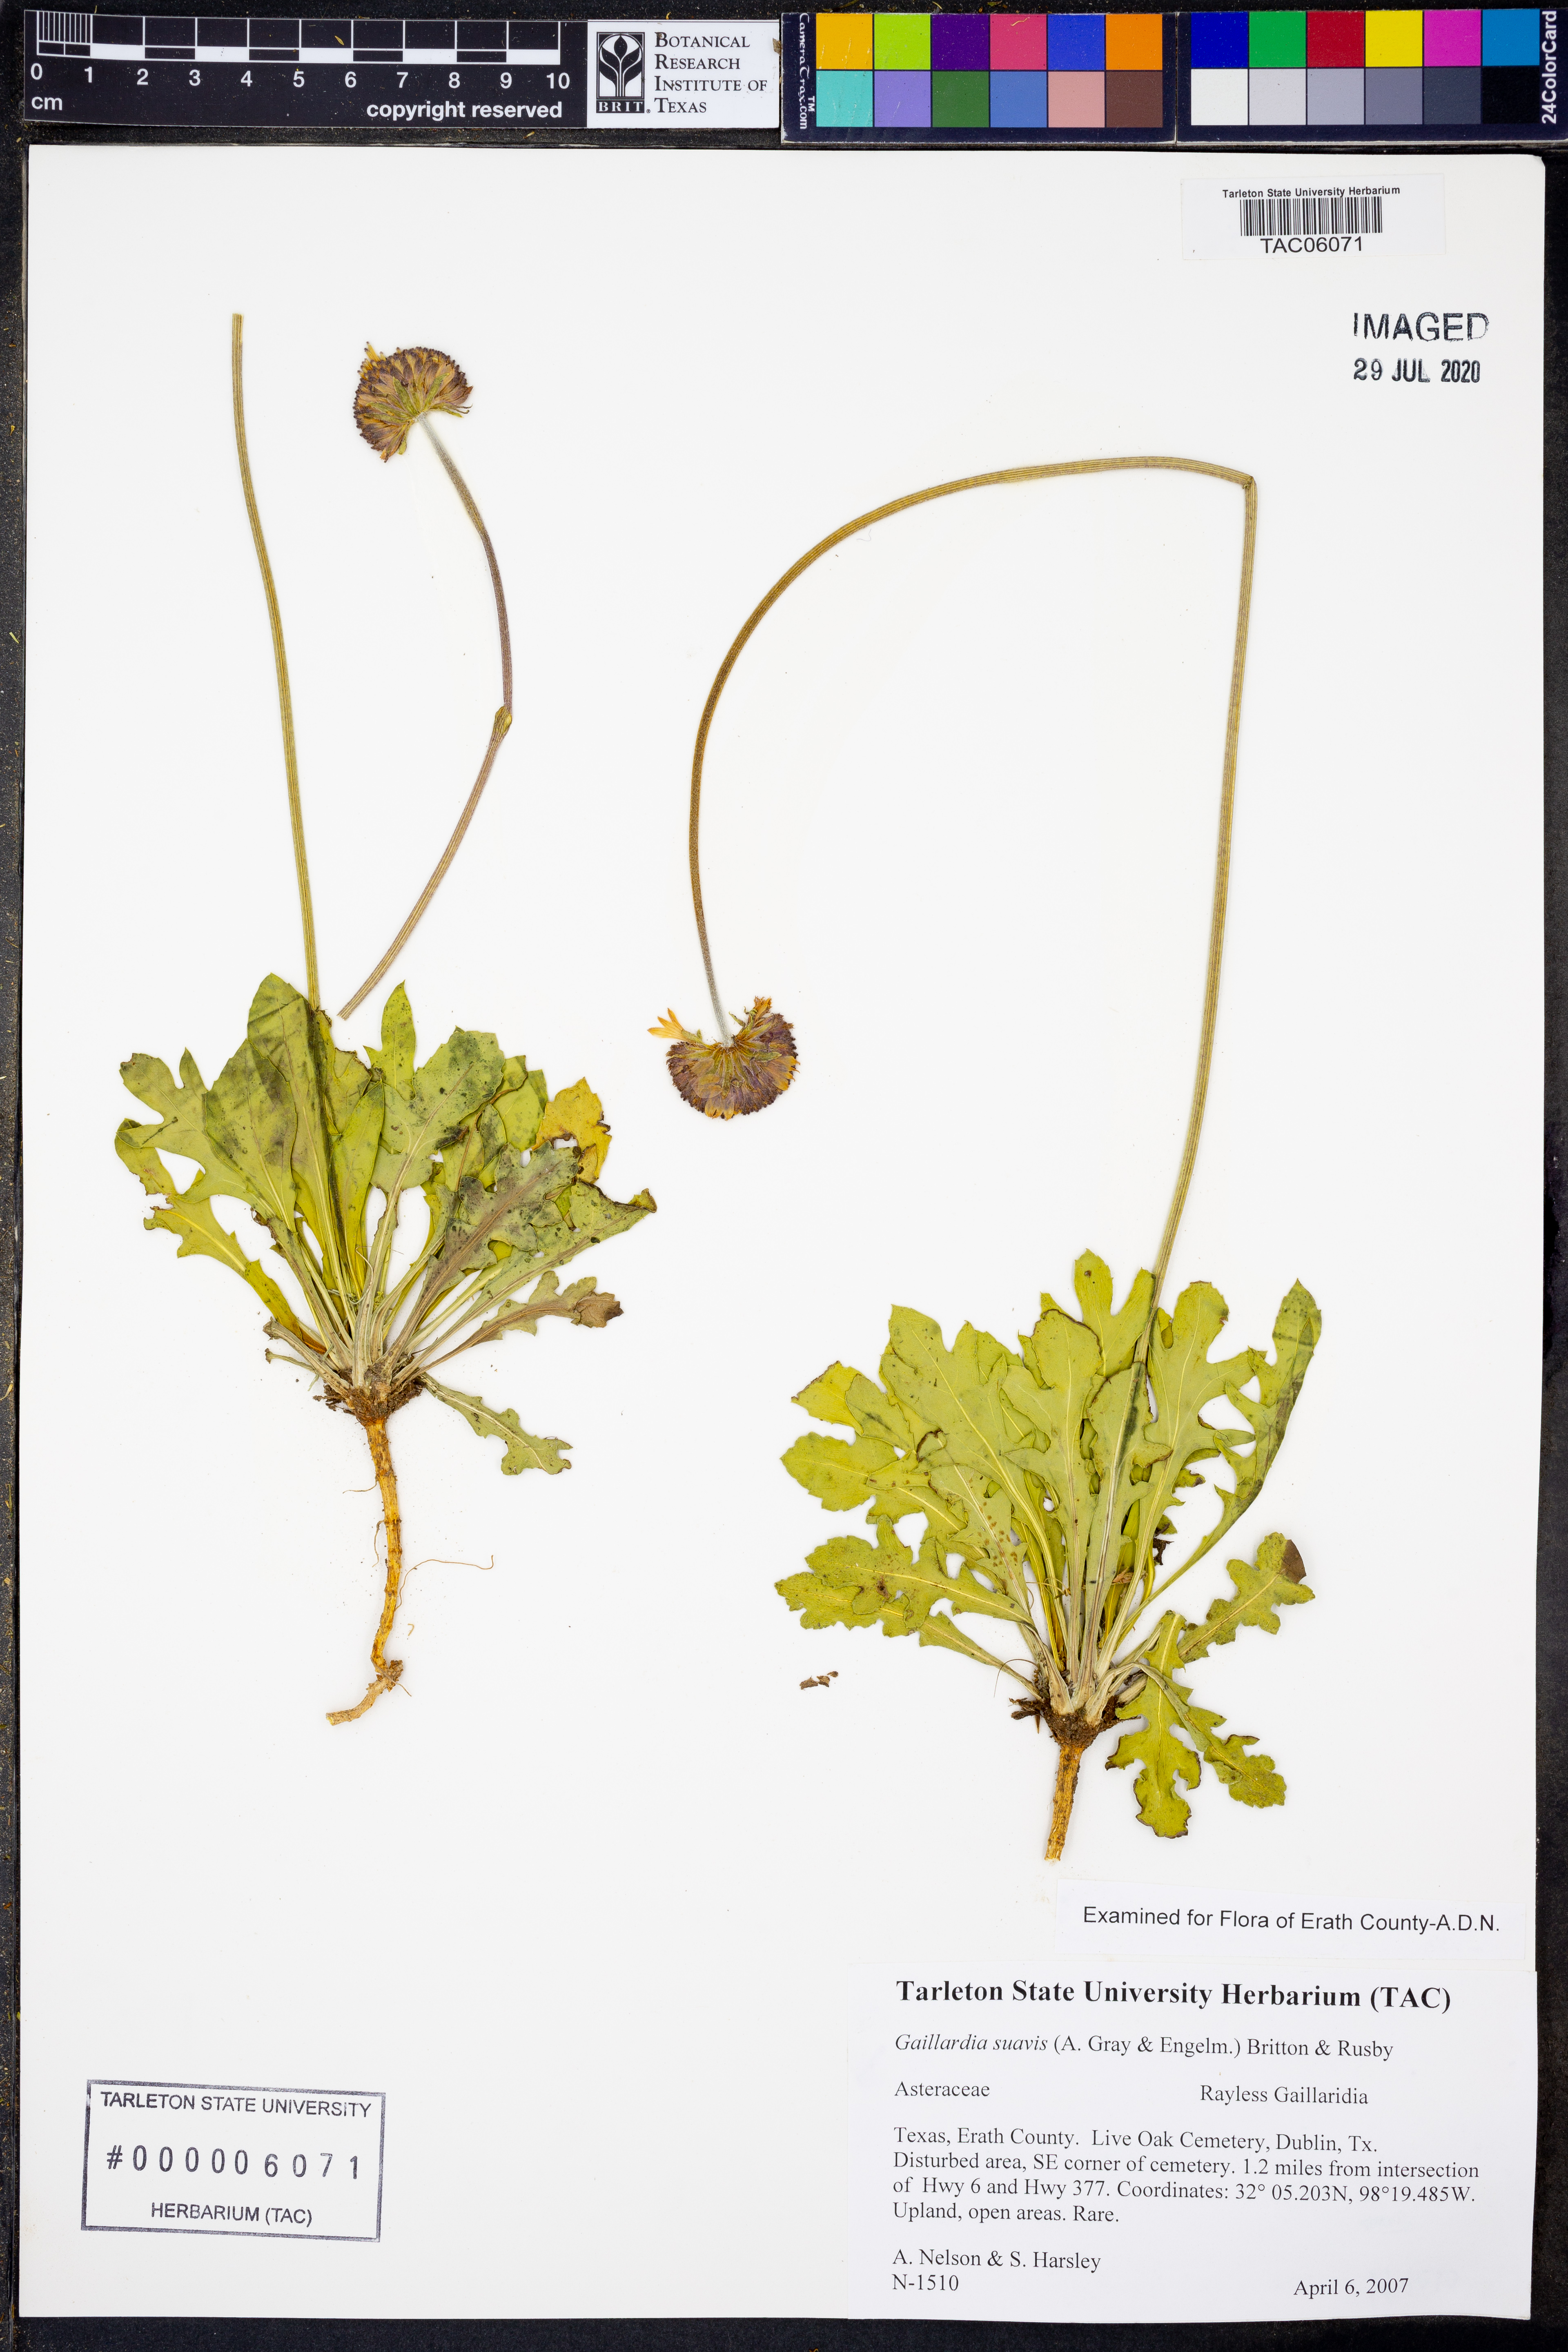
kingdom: Plantae
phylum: Tracheophyta
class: Magnoliopsida
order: Asterales
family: Asteraceae
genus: Gaillardia
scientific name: Gaillardia suavis
